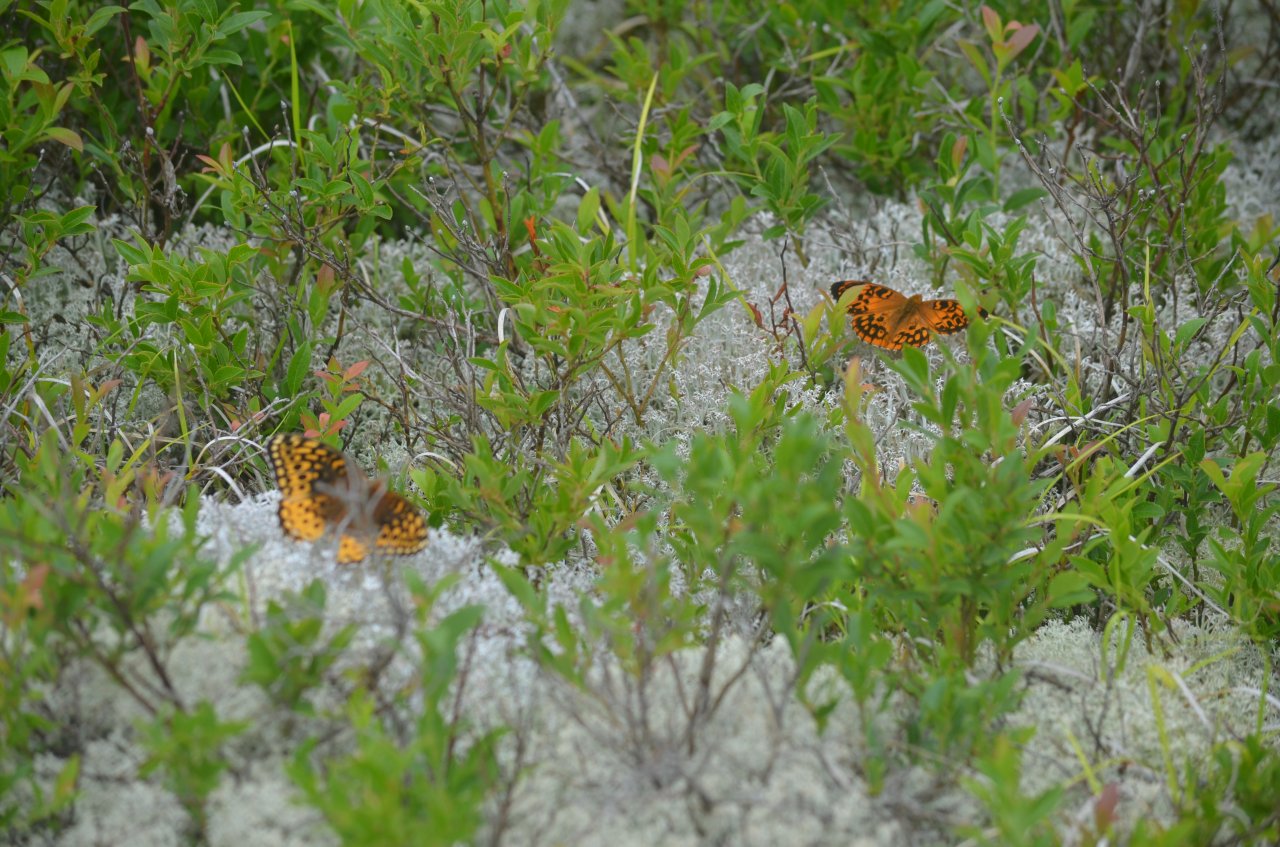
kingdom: Animalia
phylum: Arthropoda
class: Insecta
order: Lepidoptera
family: Nymphalidae
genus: Speyeria
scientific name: Speyeria cybele
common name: Great Spangled Fritillary
